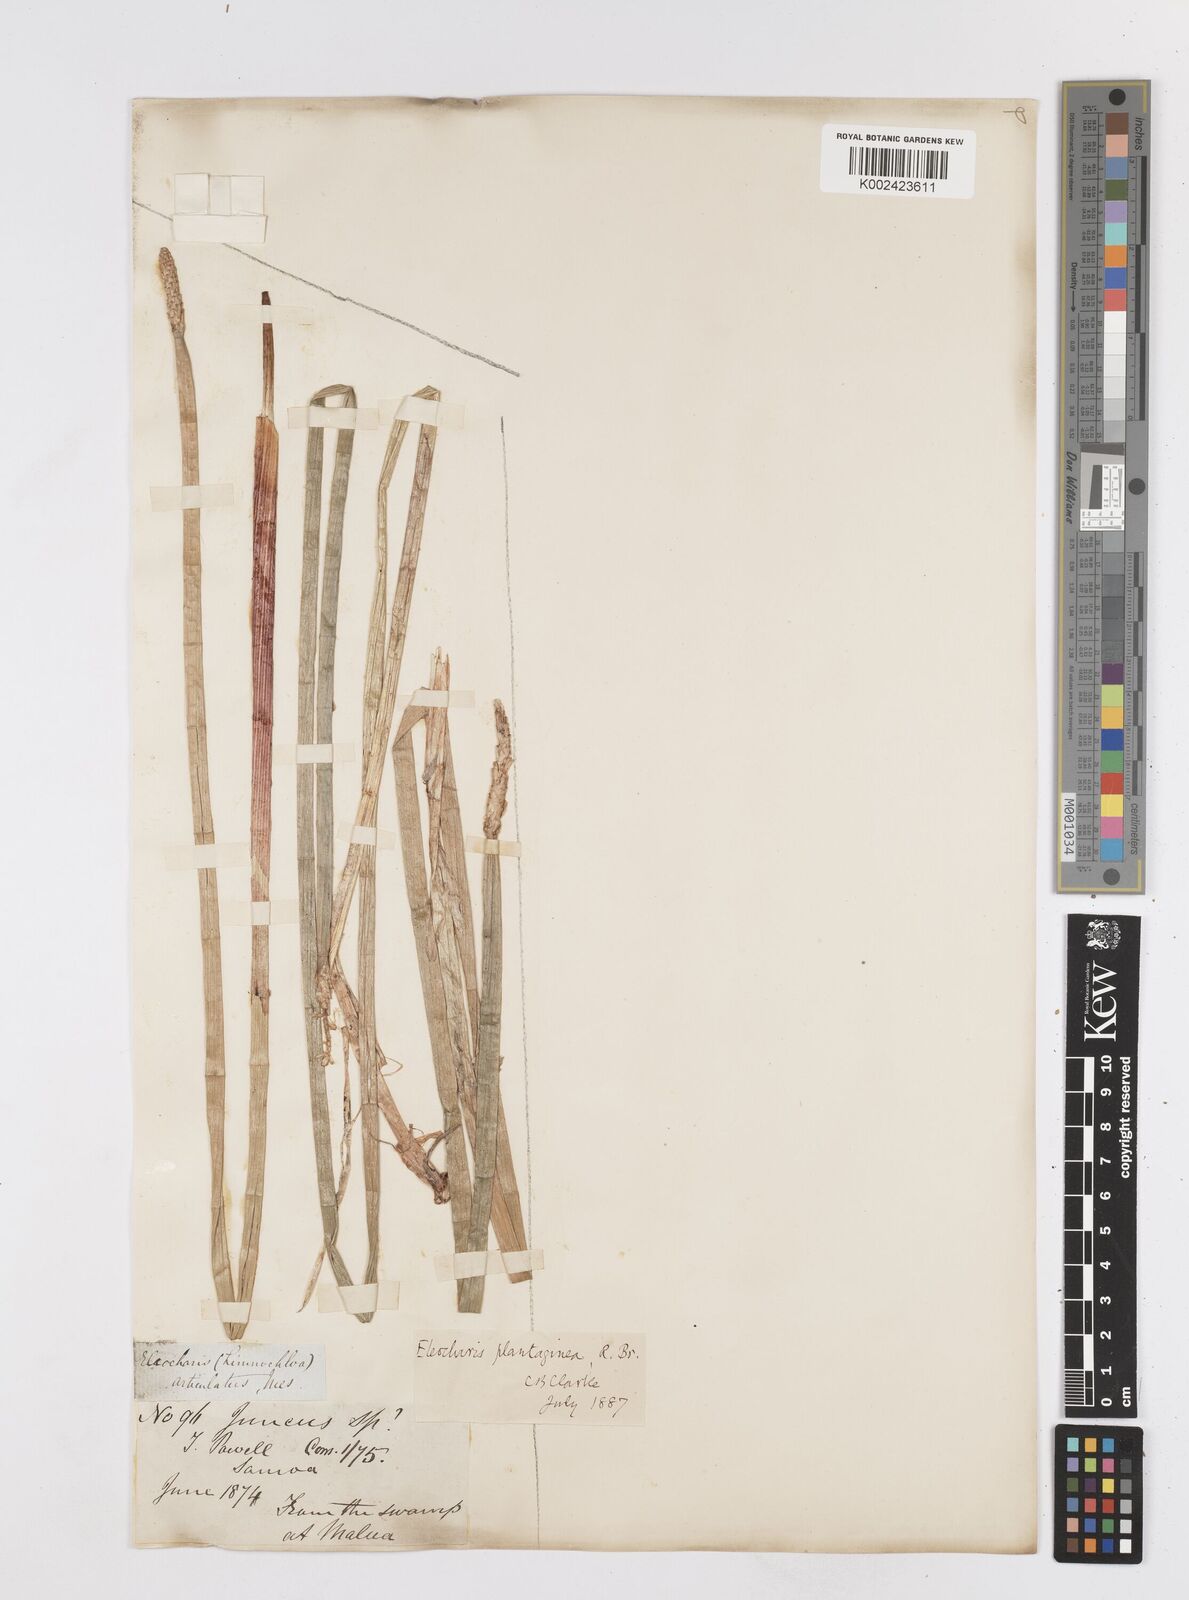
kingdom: Plantae
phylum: Tracheophyta
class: Liliopsida
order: Poales
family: Cyperaceae
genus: Eleocharis
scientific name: Eleocharis dulcis
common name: Chinese water chestnut
